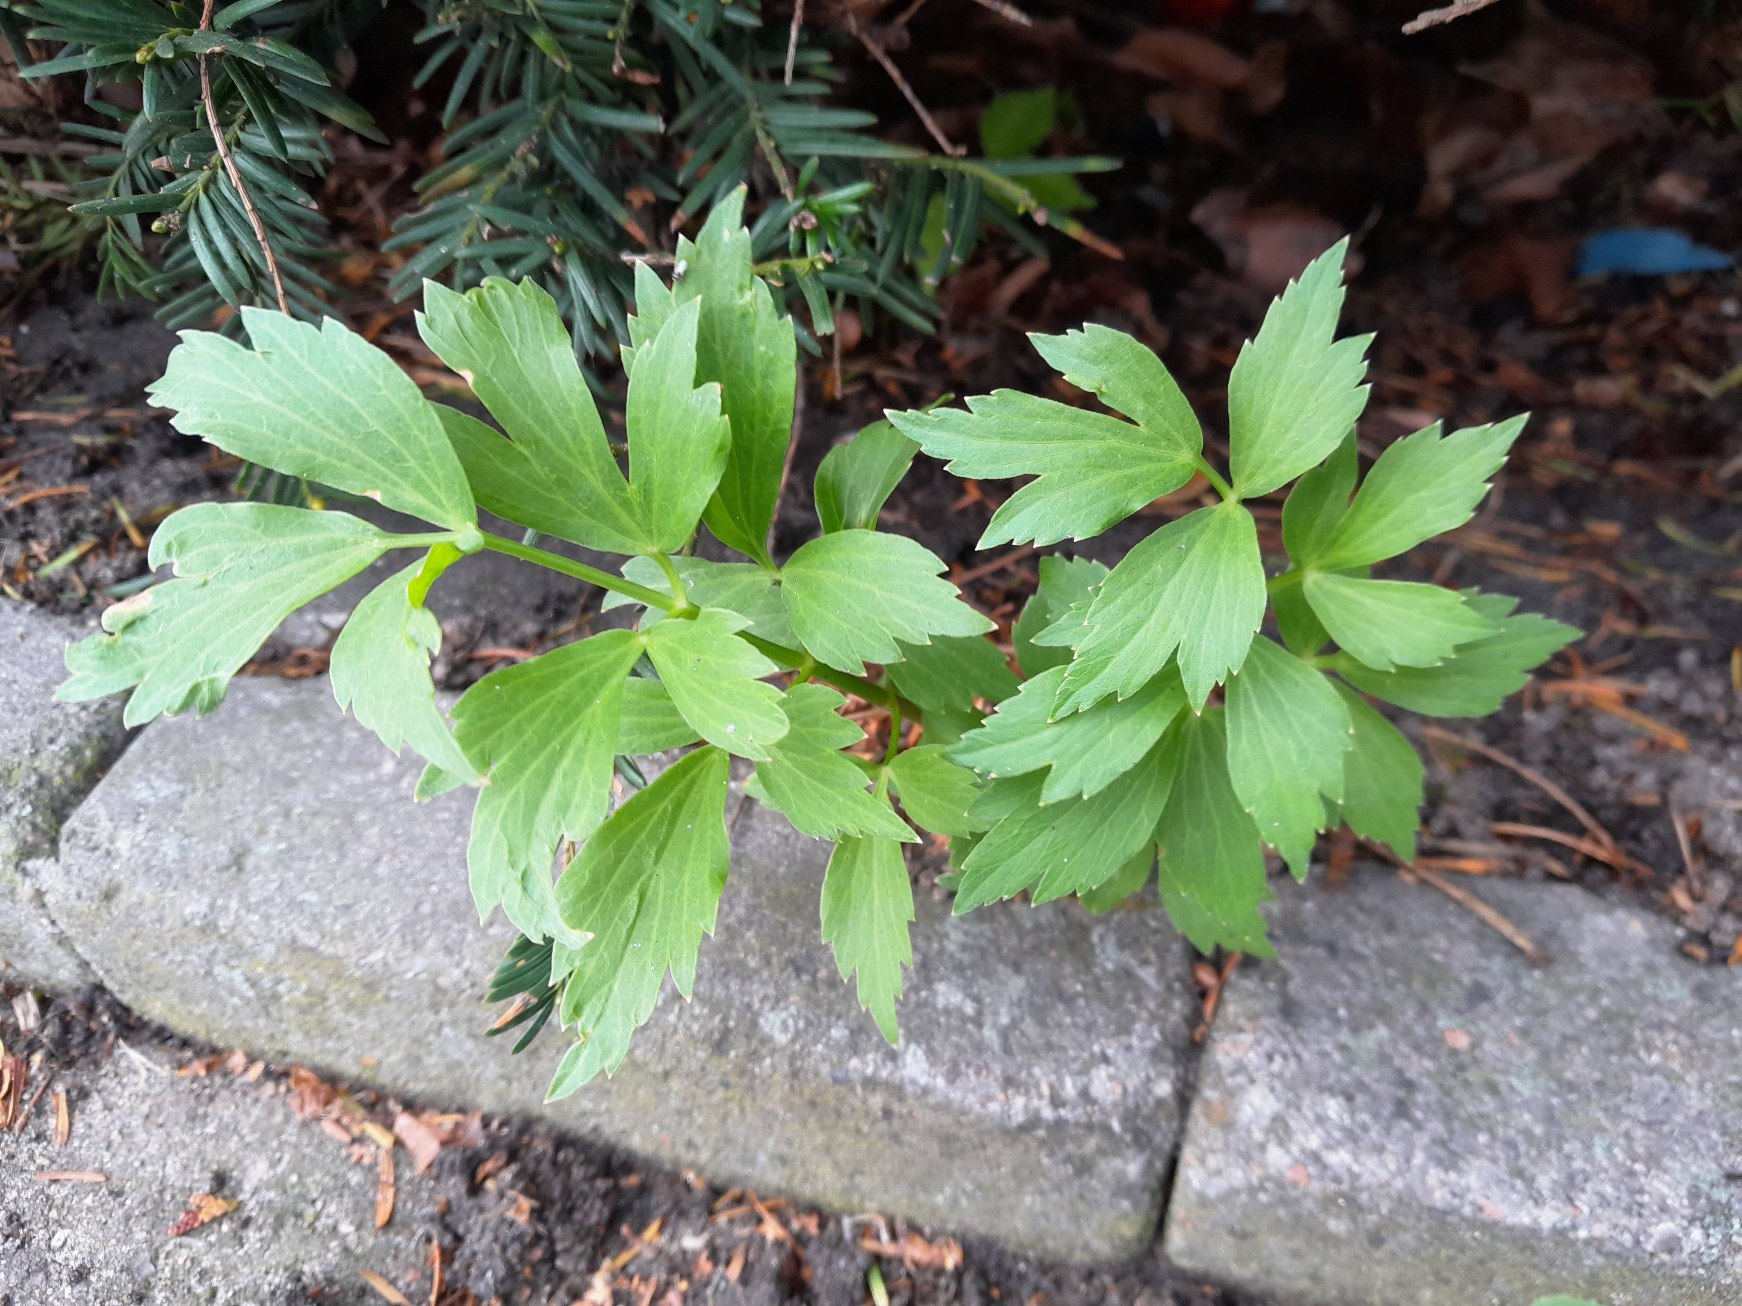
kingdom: Plantae
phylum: Tracheophyta
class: Magnoliopsida
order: Apiales
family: Apiaceae
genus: Levisticum
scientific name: Levisticum officinale
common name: Løvstikke
